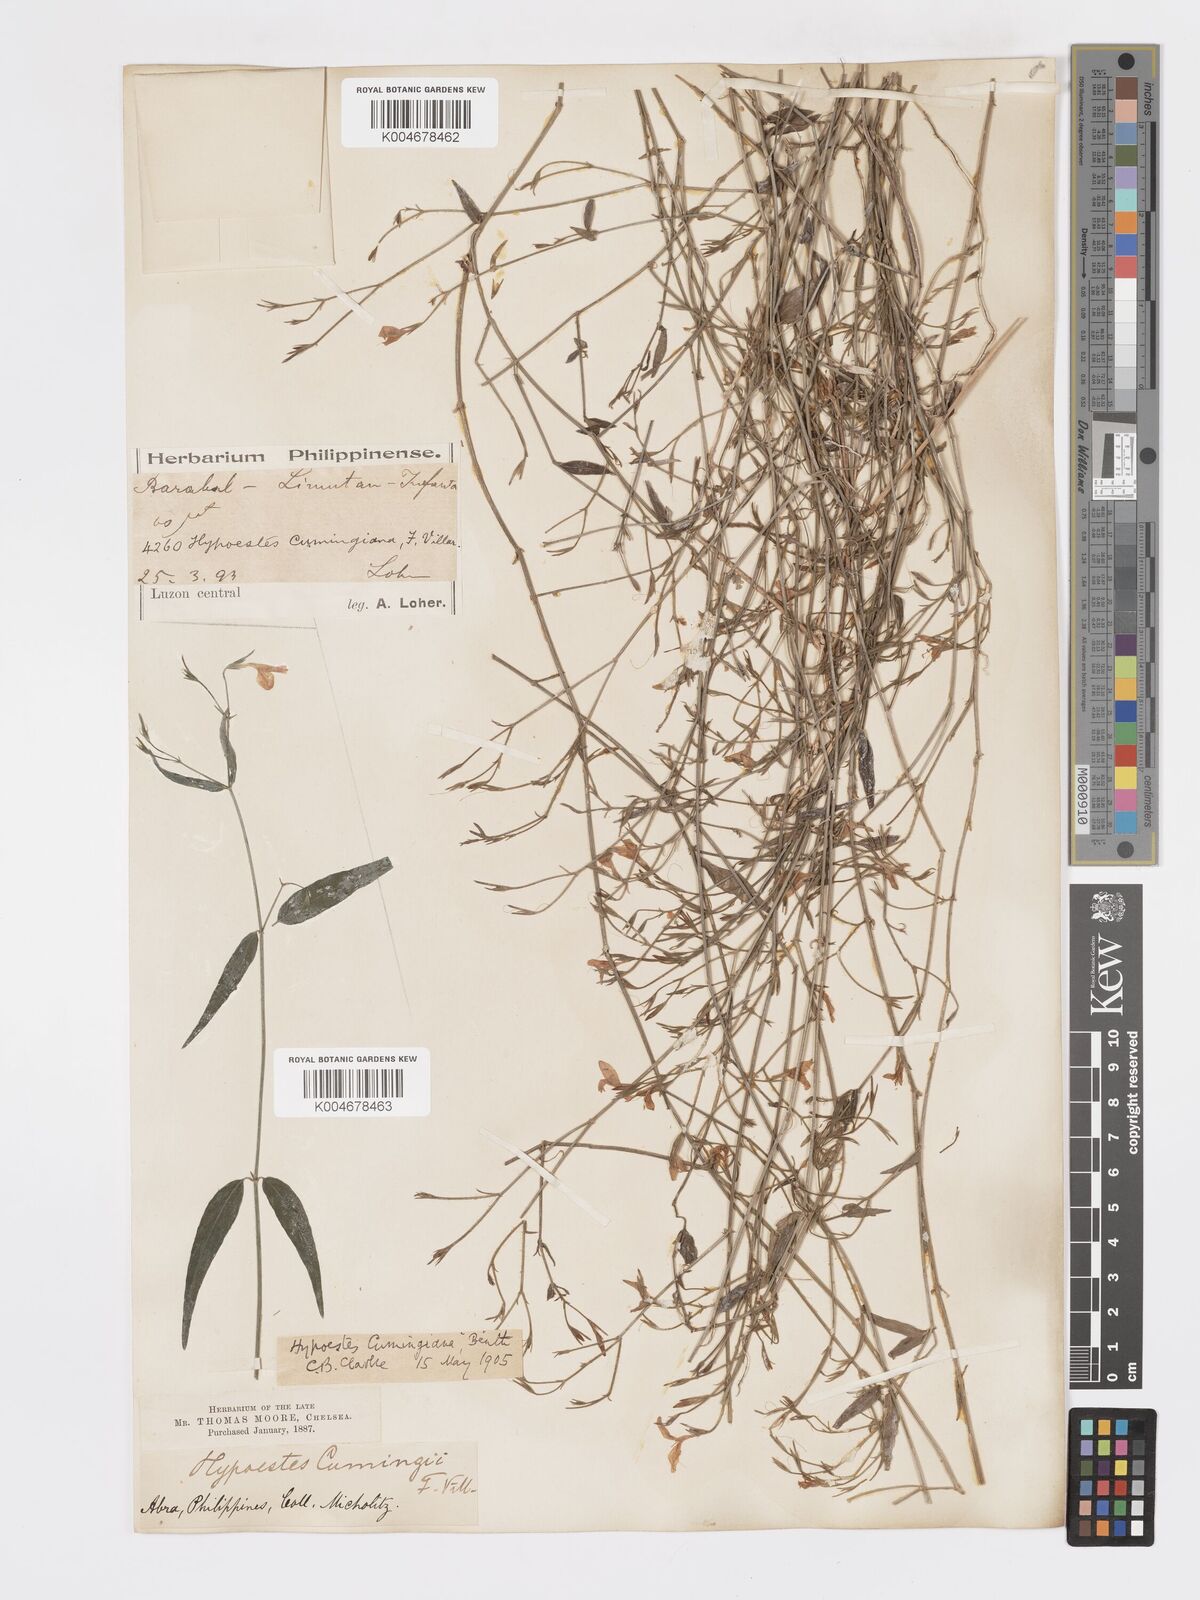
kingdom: Plantae
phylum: Tracheophyta
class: Magnoliopsida
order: Lamiales
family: Acanthaceae
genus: Hypoestes
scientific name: Hypoestes cumingiana
